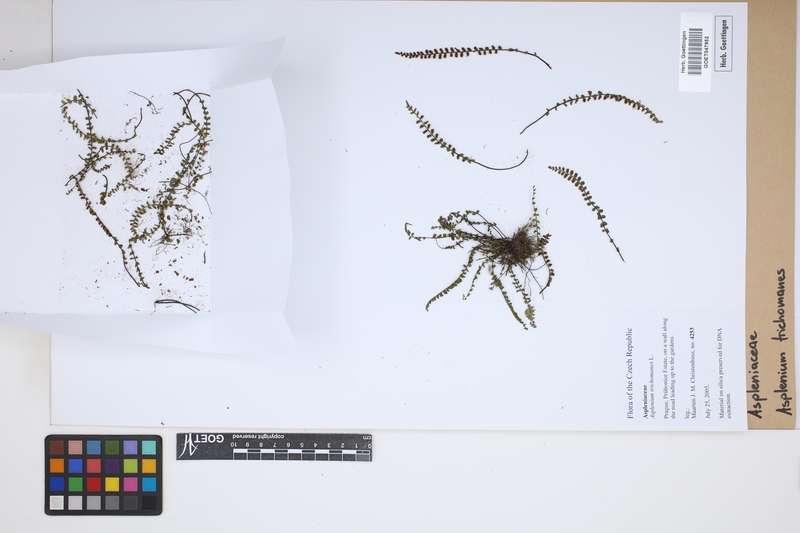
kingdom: Plantae
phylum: Tracheophyta
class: Polypodiopsida
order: Polypodiales
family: Aspleniaceae
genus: Asplenium
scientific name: Asplenium trichomanes
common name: Maidenhair spleenwort
